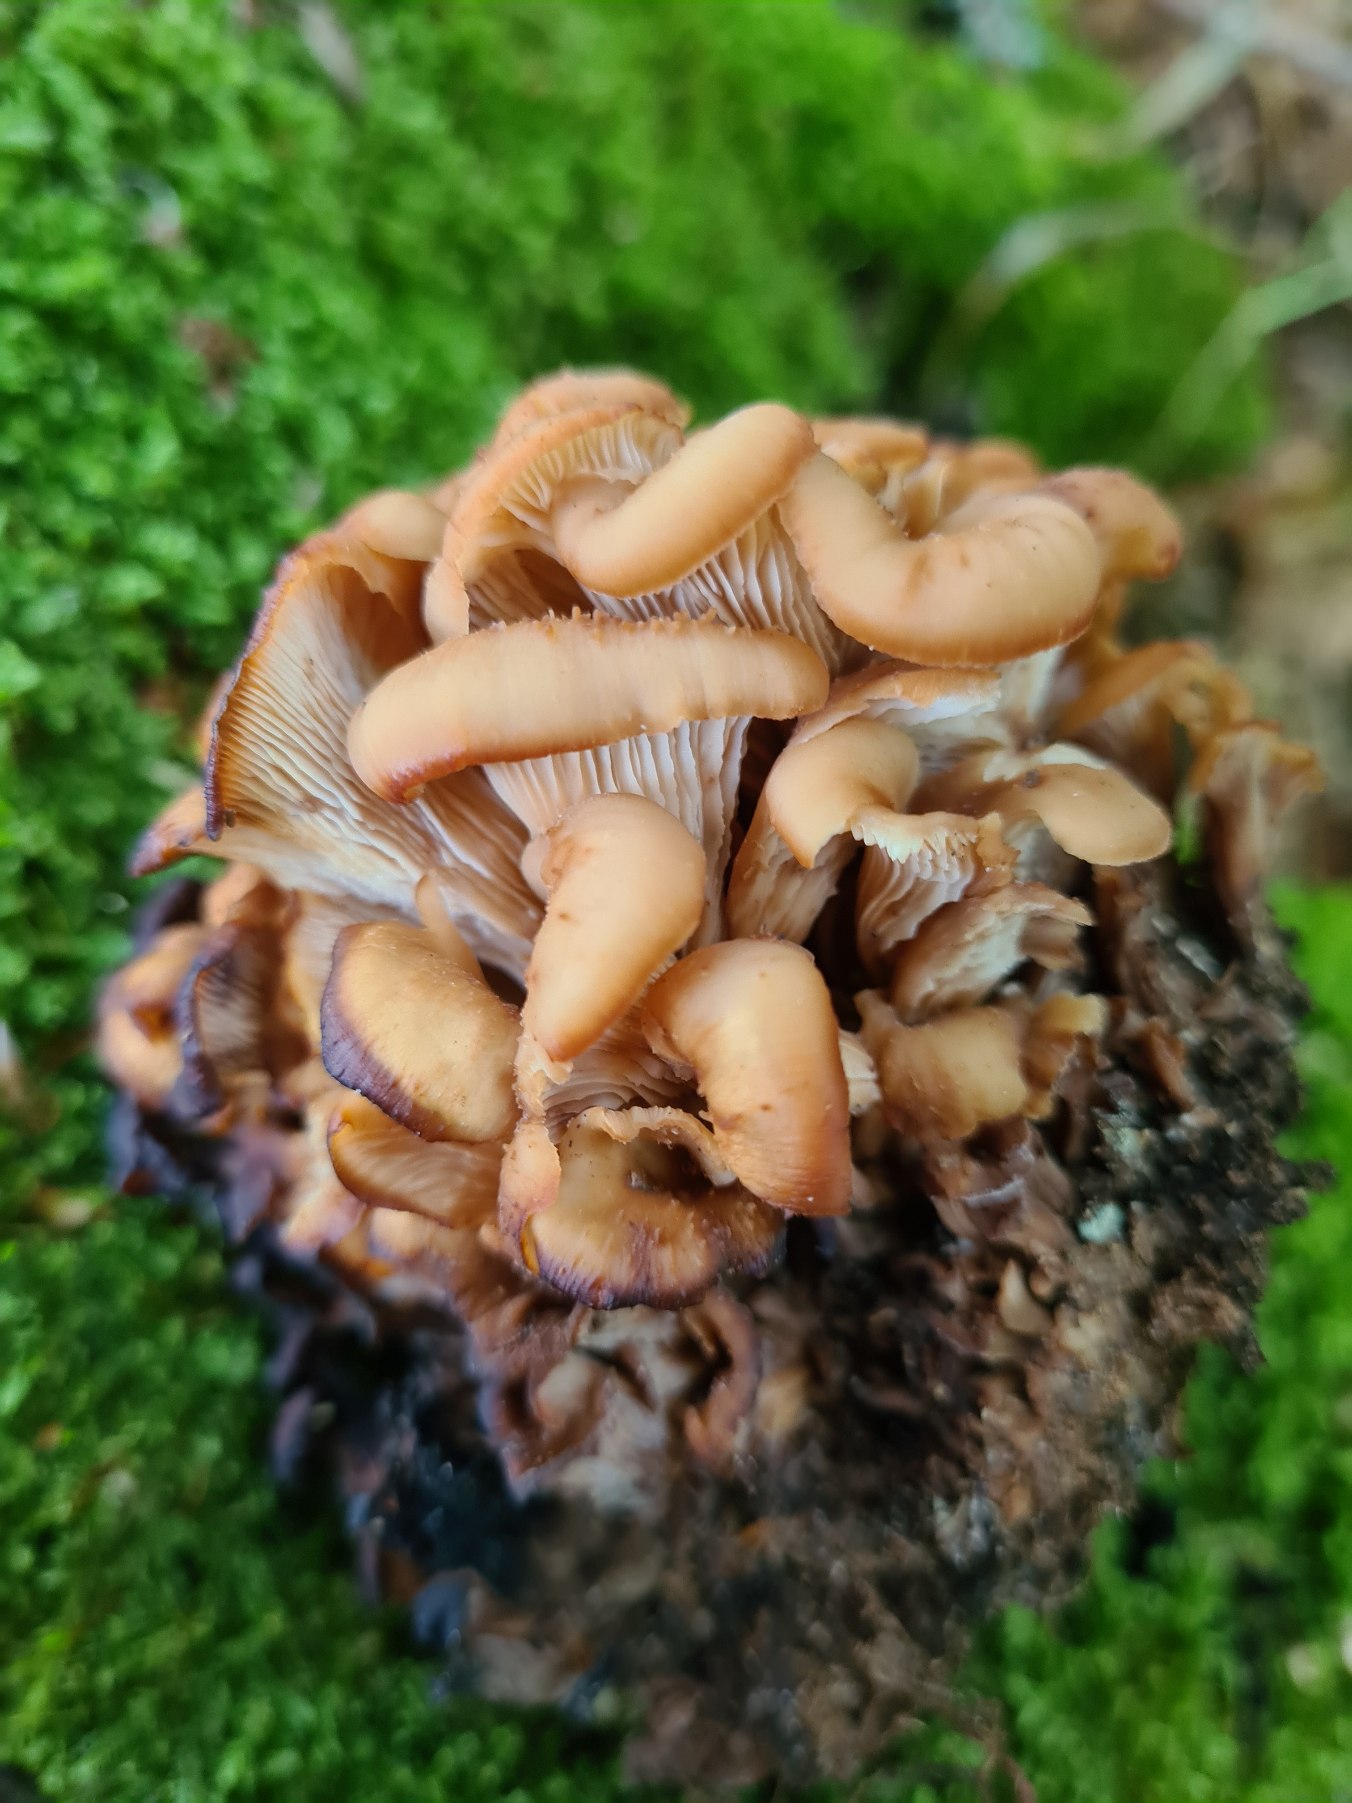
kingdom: Fungi
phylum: Basidiomycota
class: Agaricomycetes
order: Russulales
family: Auriscalpiaceae
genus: Lentinellus
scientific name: Lentinellus cochleatus
